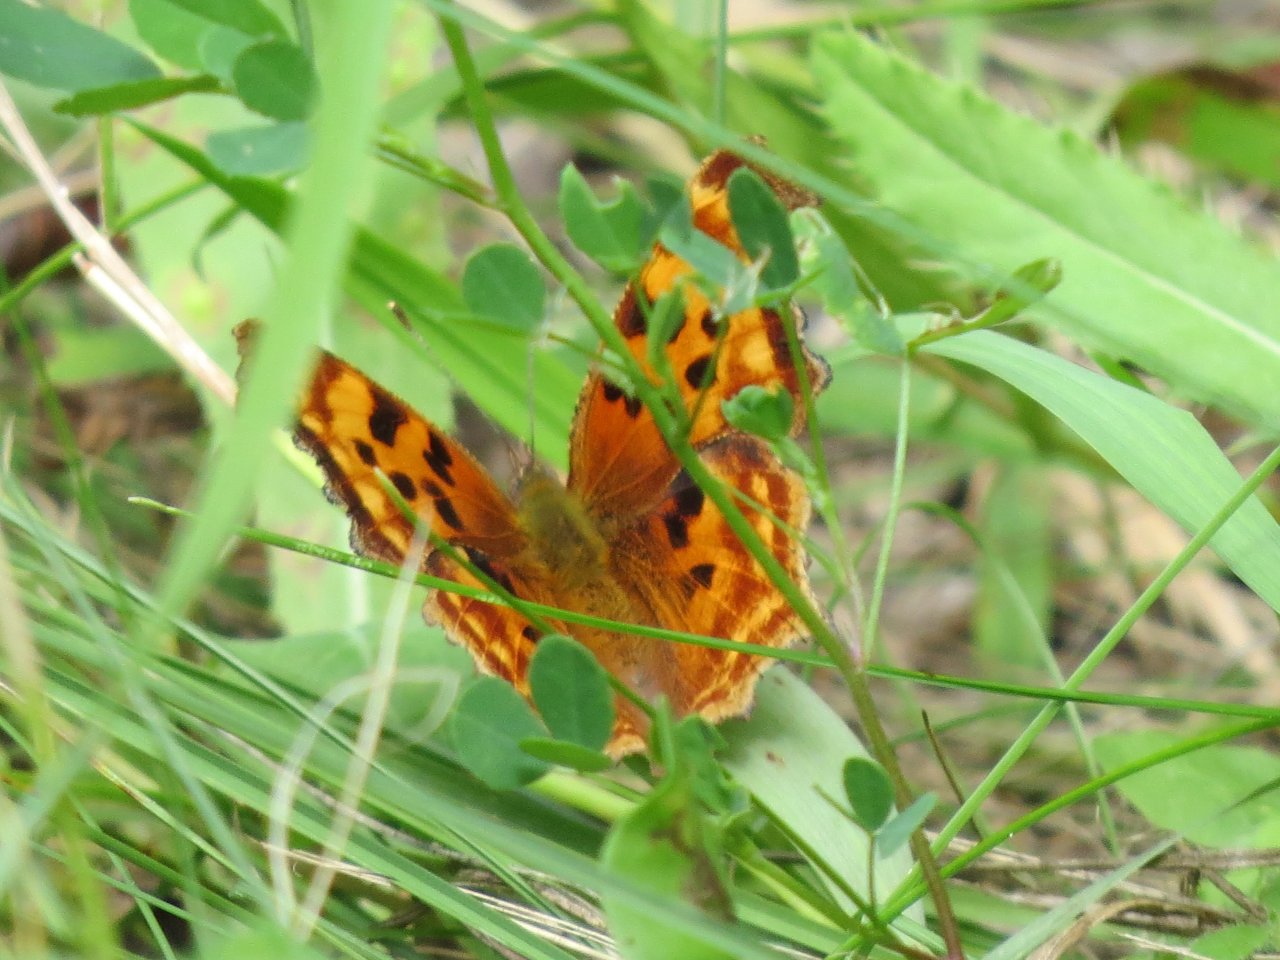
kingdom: Animalia
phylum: Arthropoda
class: Insecta
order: Lepidoptera
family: Nymphalidae
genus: Polygonia
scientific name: Polygonia satyrus
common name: Satyr Comma
